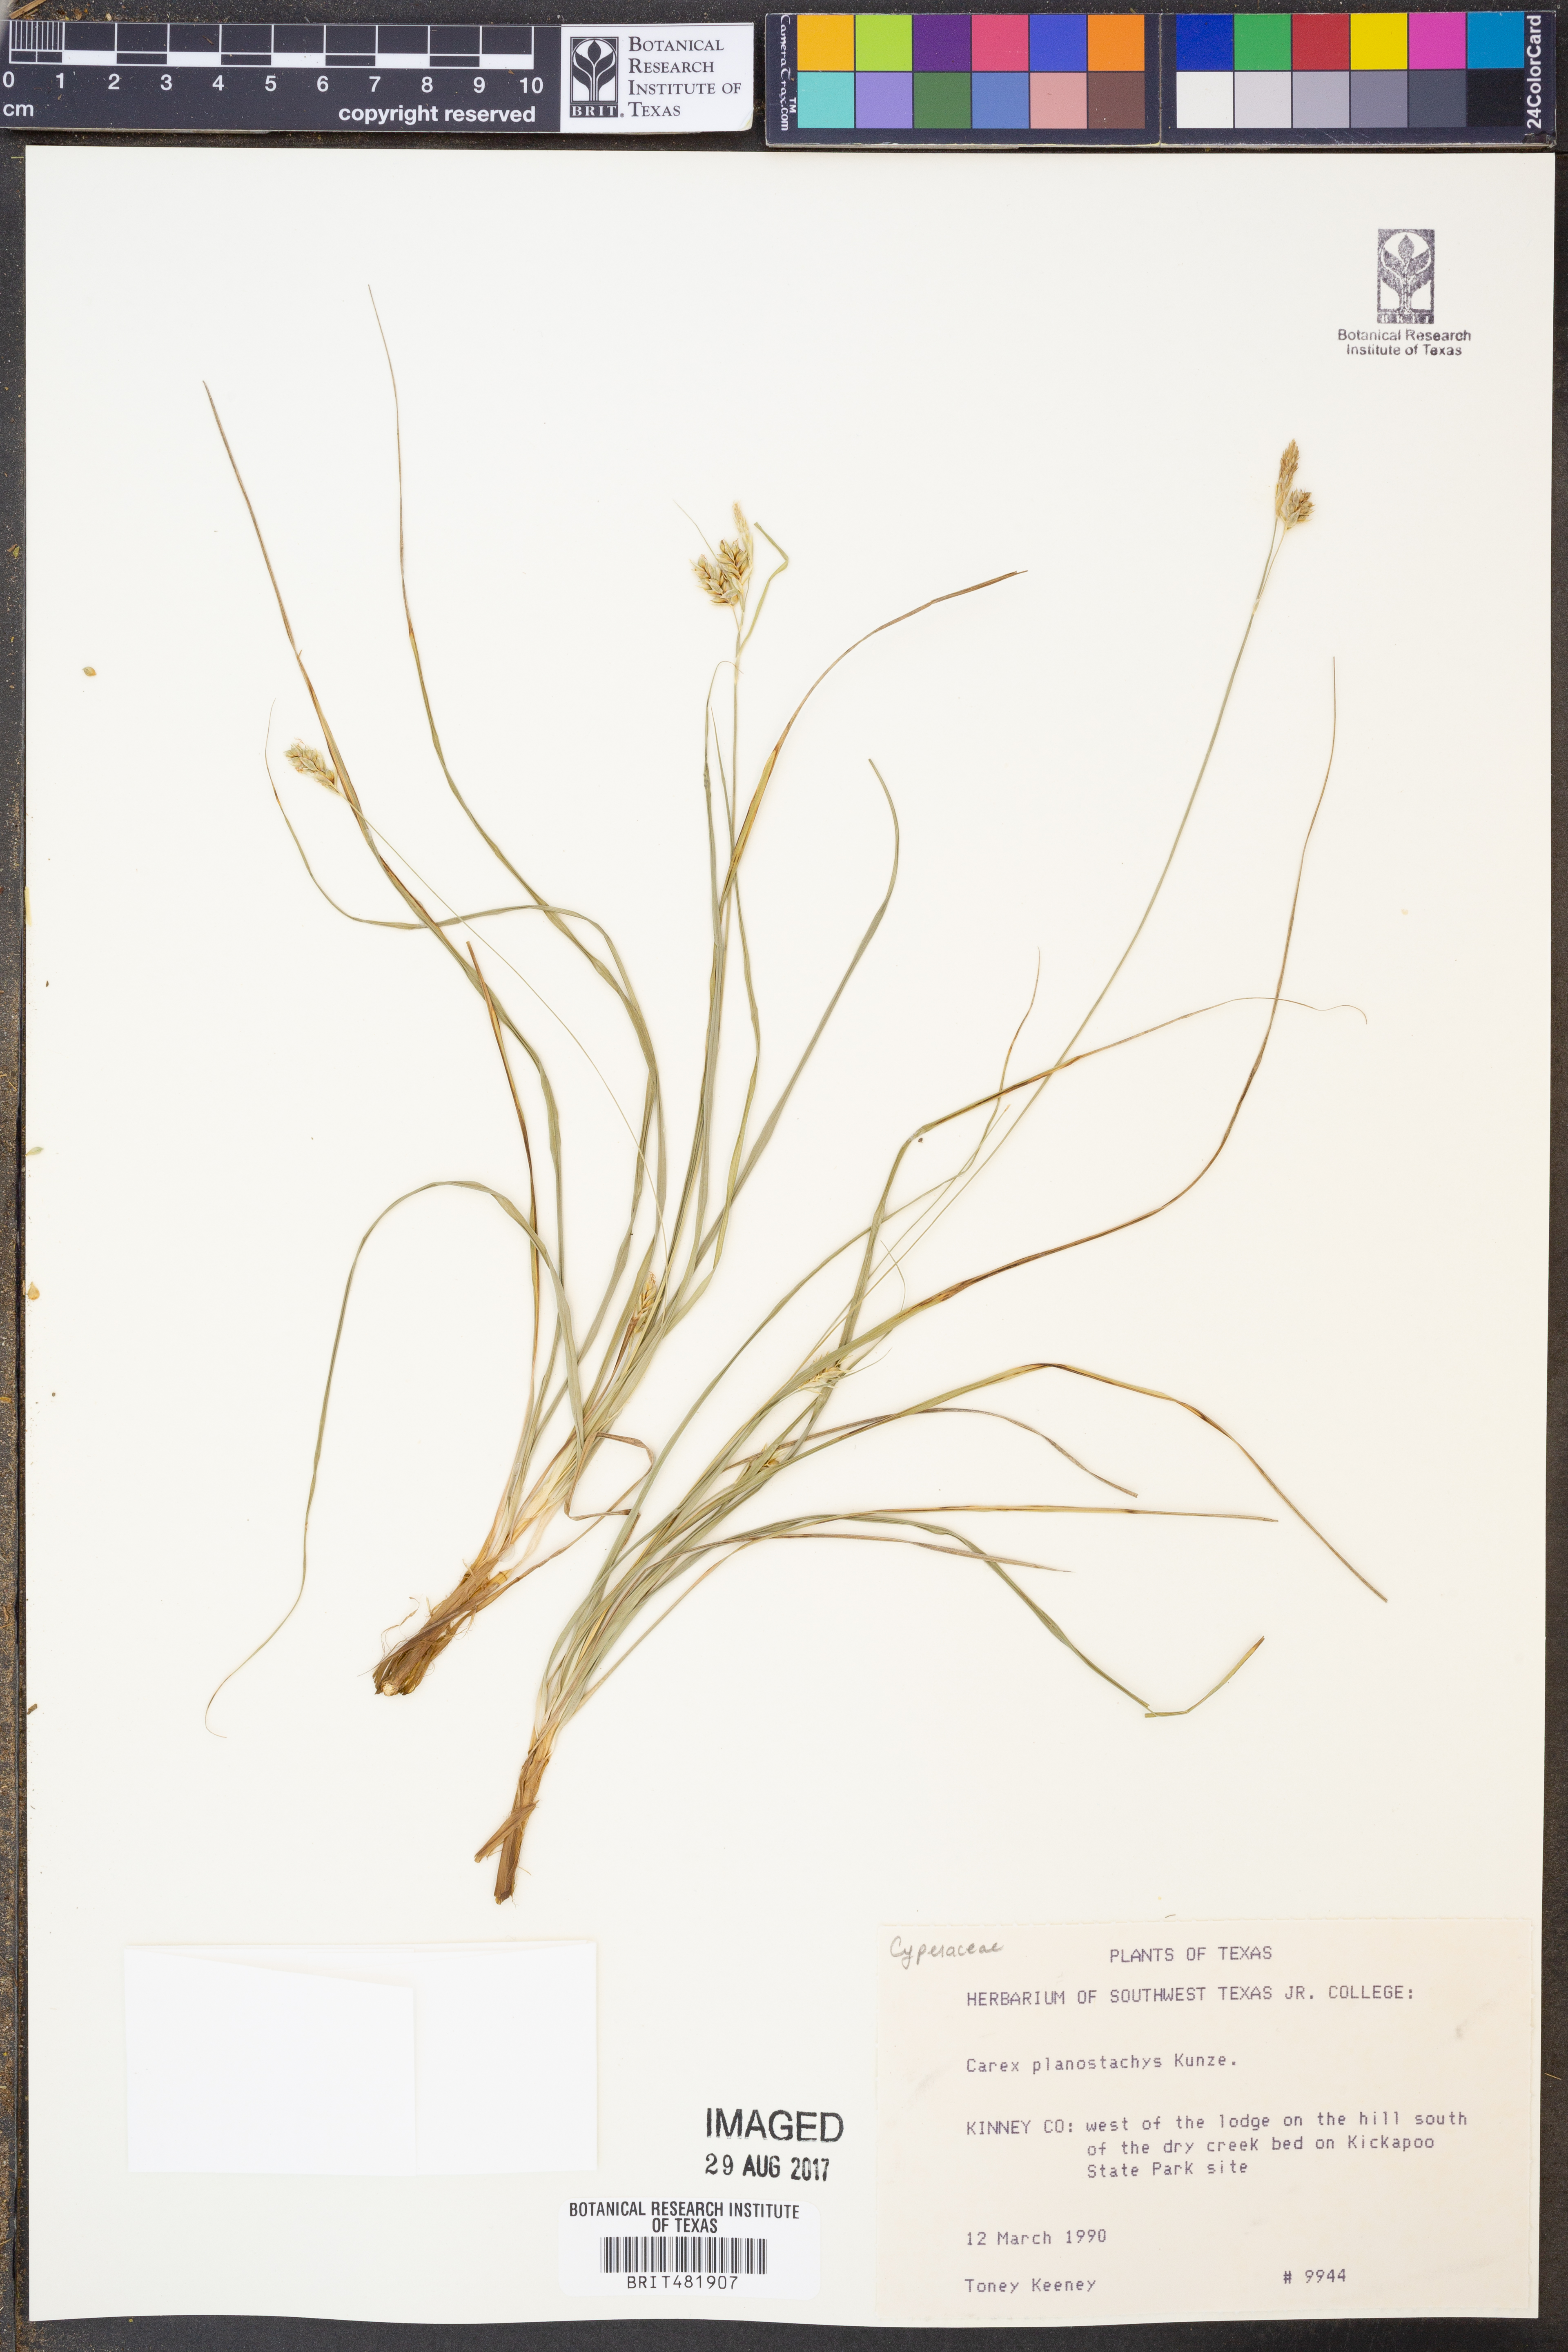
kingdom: Plantae
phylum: Tracheophyta
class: Liliopsida
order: Poales
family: Cyperaceae
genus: Carex
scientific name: Carex planostachys
